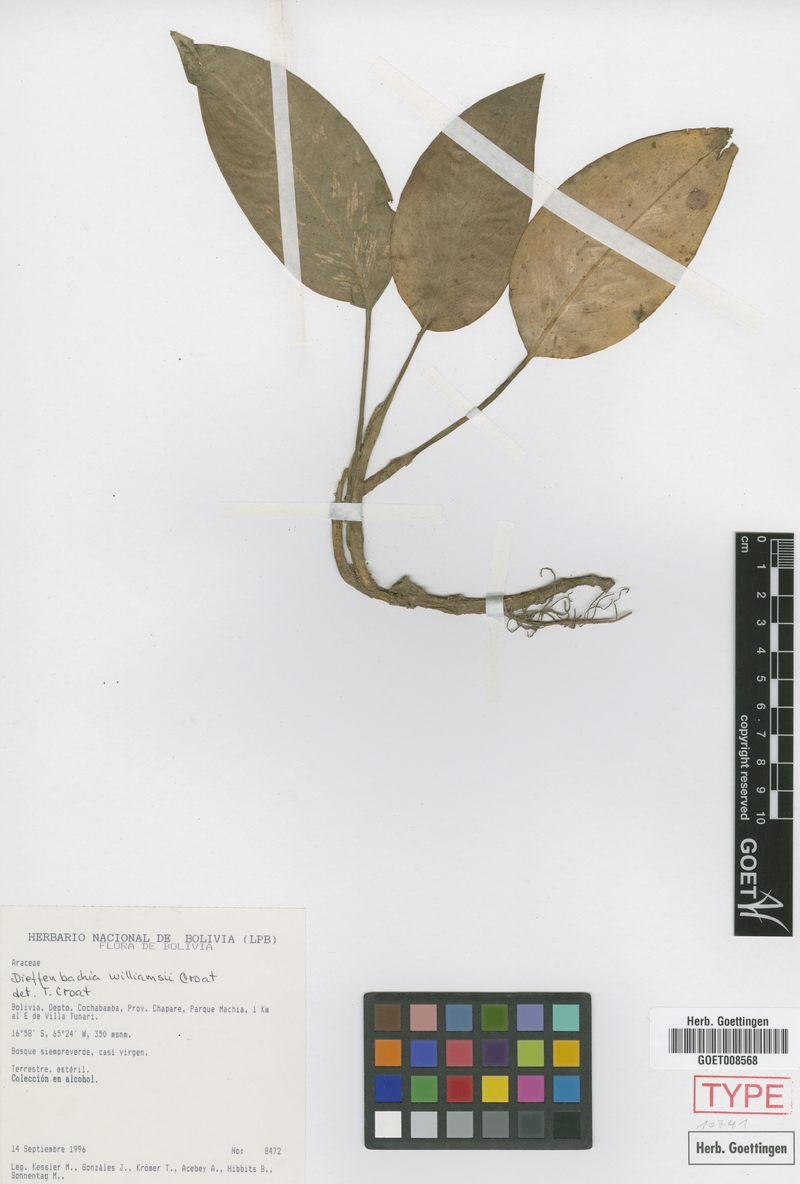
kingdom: Plantae
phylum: Tracheophyta
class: Liliopsida
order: Alismatales
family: Araceae
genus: Dieffenbachia
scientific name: Dieffenbachia williamsii
